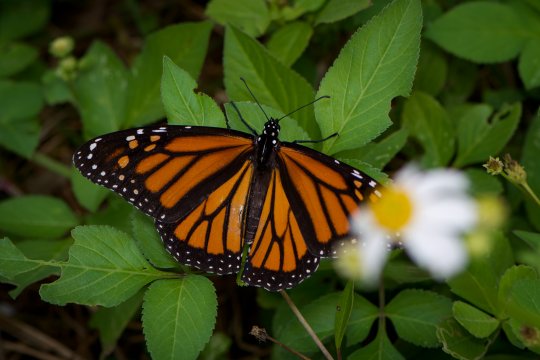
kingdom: Animalia
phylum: Arthropoda
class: Insecta
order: Lepidoptera
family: Nymphalidae
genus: Danaus
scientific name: Danaus plexippus
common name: Monarch
